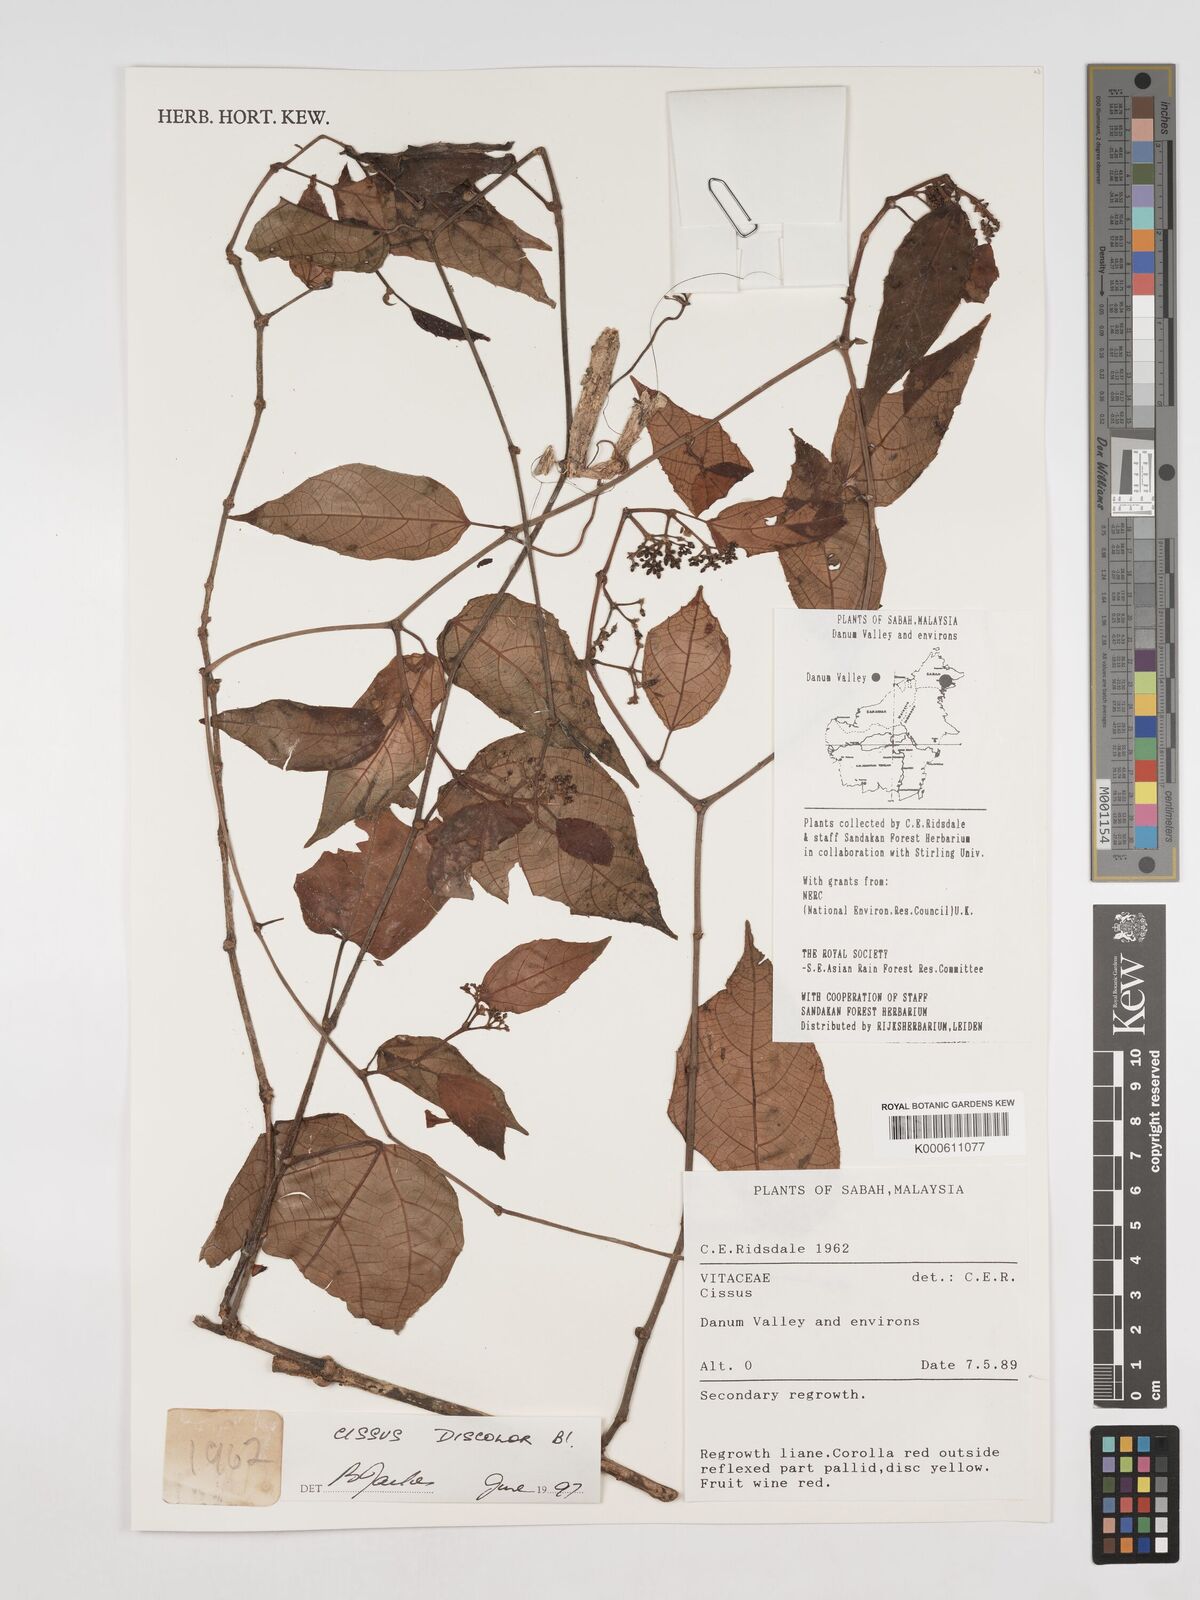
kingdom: Plantae
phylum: Tracheophyta
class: Magnoliopsida
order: Vitales
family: Vitaceae
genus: Cissus
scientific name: Cissus discolor
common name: Climbing-begonia
